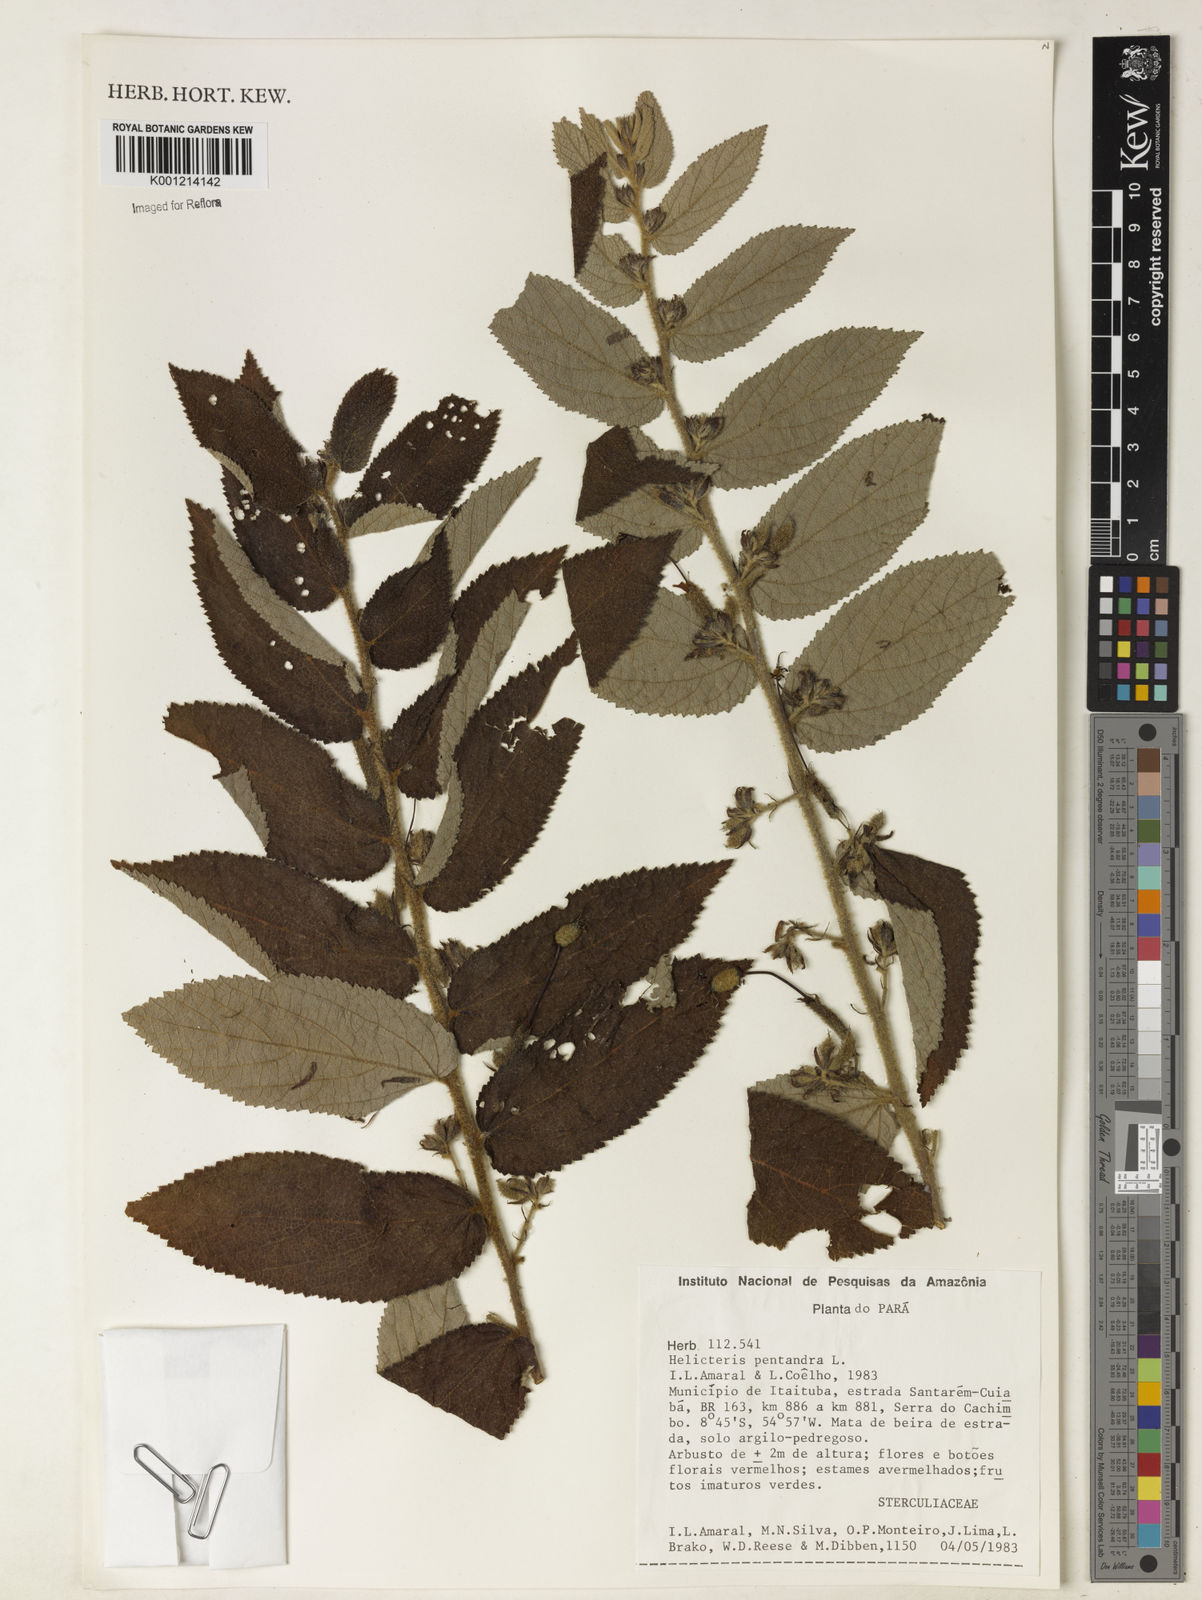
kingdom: Plantae
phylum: Tracheophyta
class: Magnoliopsida
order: Malvales
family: Malvaceae
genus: Helicteres
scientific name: Helicteres pentandra
